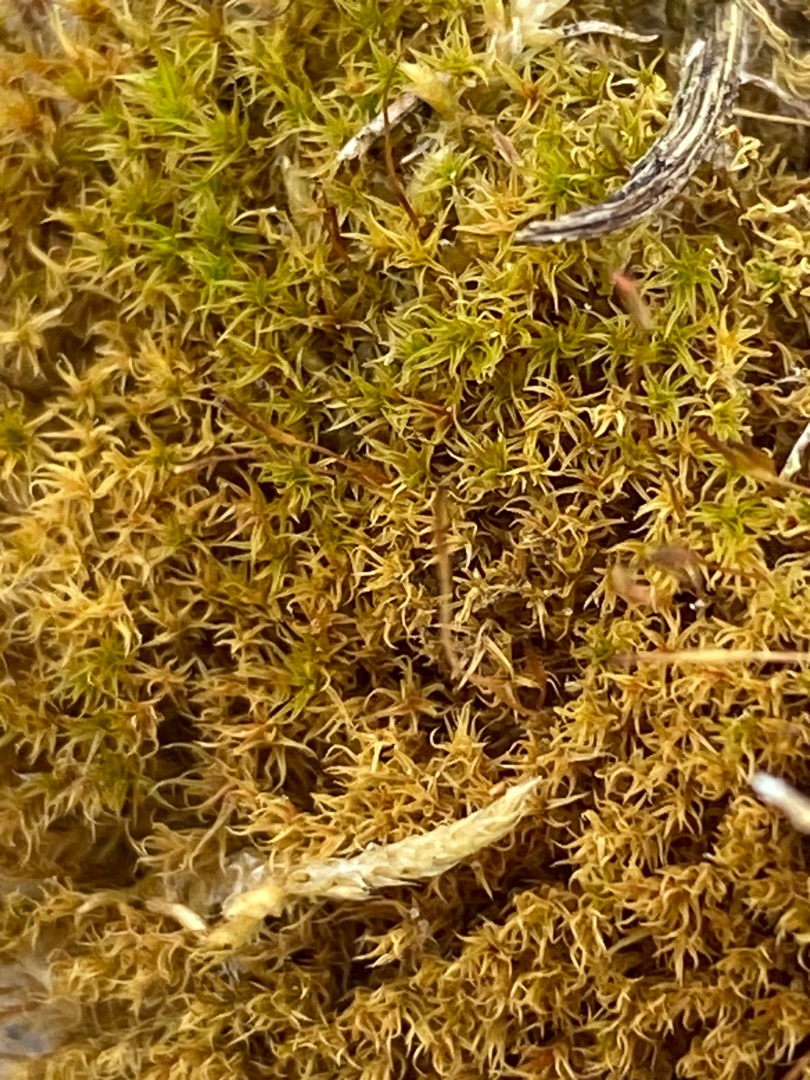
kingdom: Plantae
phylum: Bryophyta
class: Bryopsida
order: Dicranales
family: Ditrichaceae
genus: Ceratodon
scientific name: Ceratodon purpureus
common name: Rød horntand
